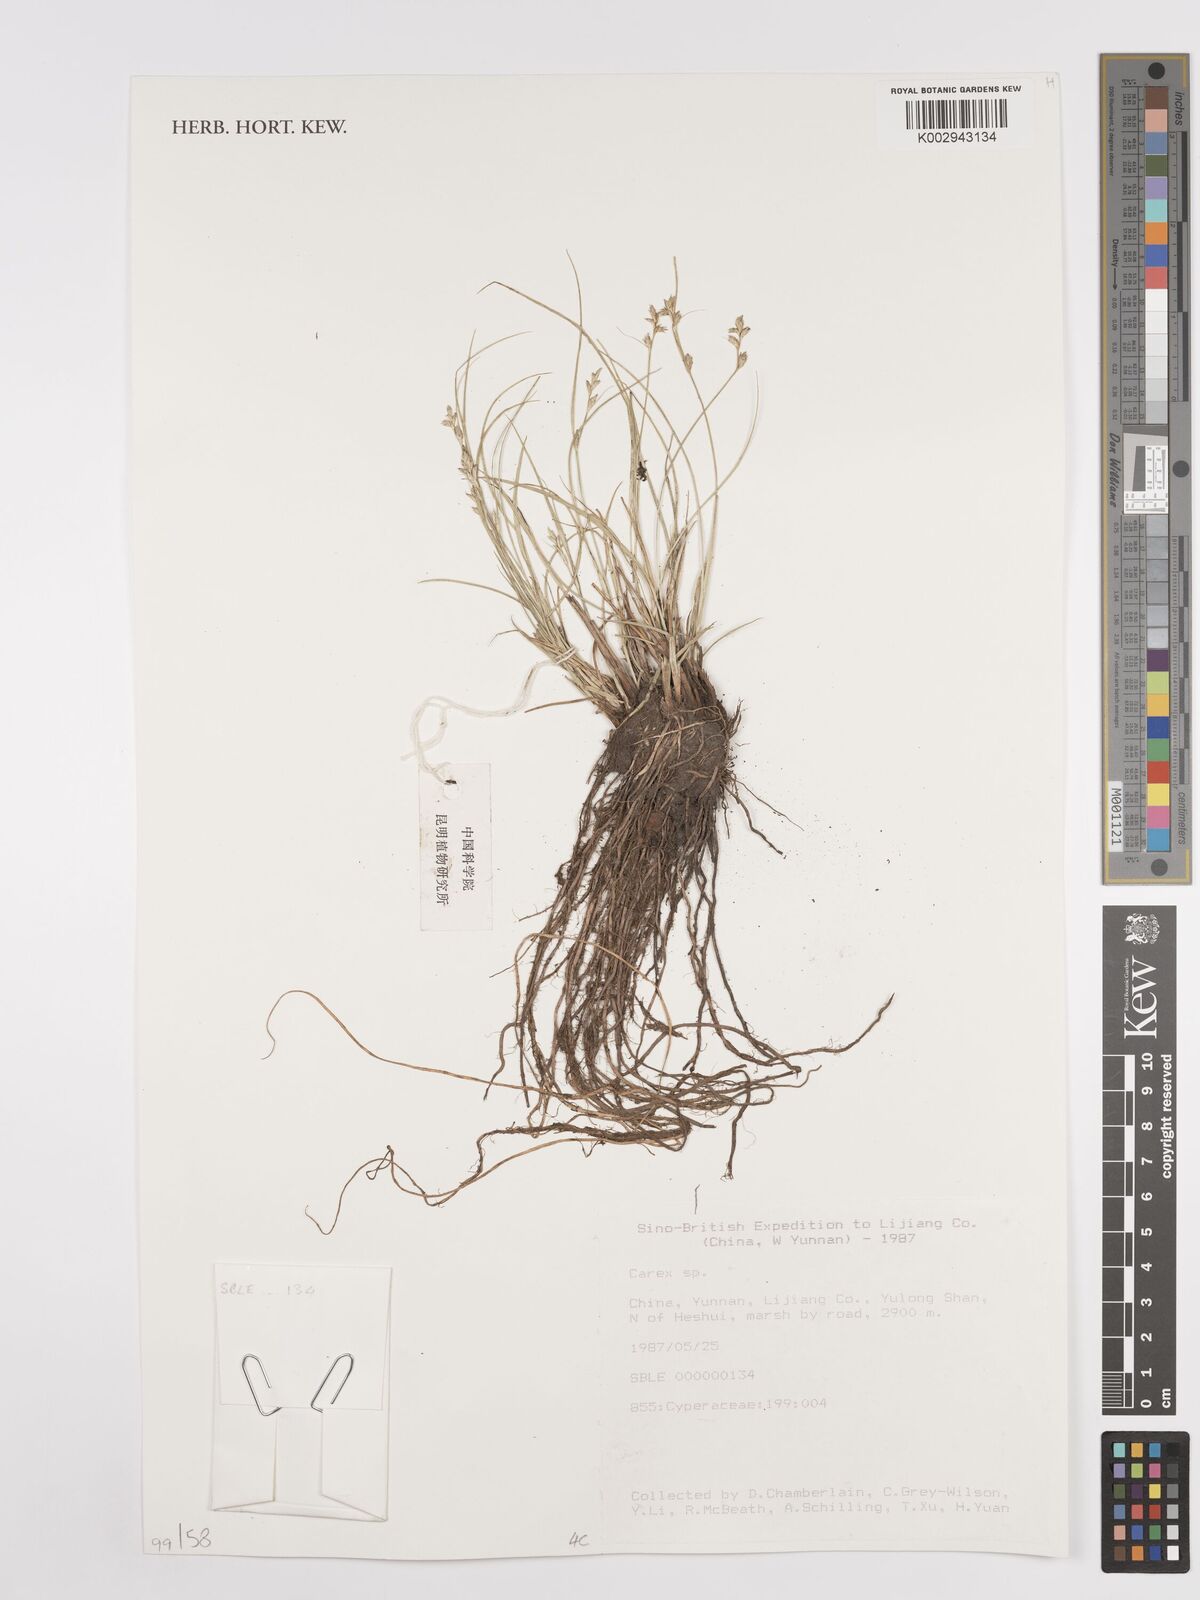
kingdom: Plantae
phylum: Tracheophyta
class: Liliopsida
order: Poales
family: Cyperaceae
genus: Carex
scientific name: Carex
